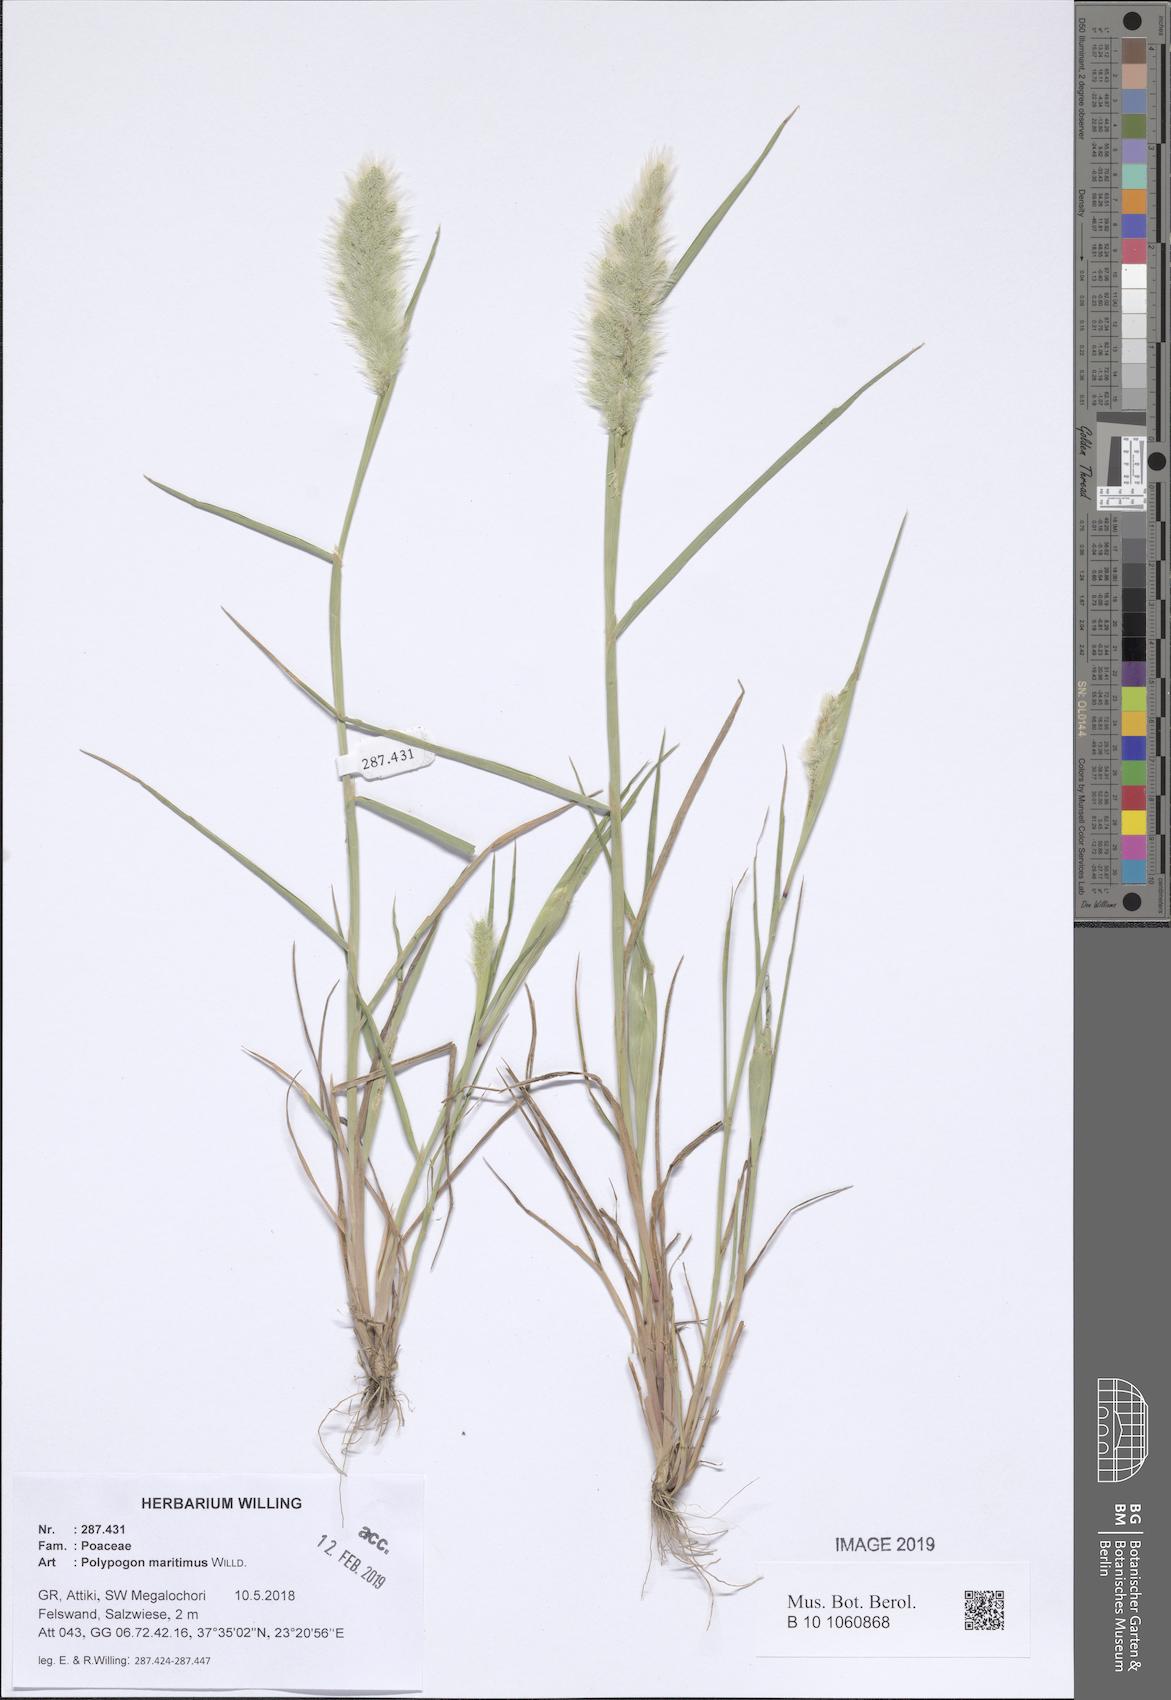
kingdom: Plantae
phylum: Tracheophyta
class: Liliopsida
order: Poales
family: Poaceae
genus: Polypogon
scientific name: Polypogon maritimus
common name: Mediterranean rabbitsfoot grass
